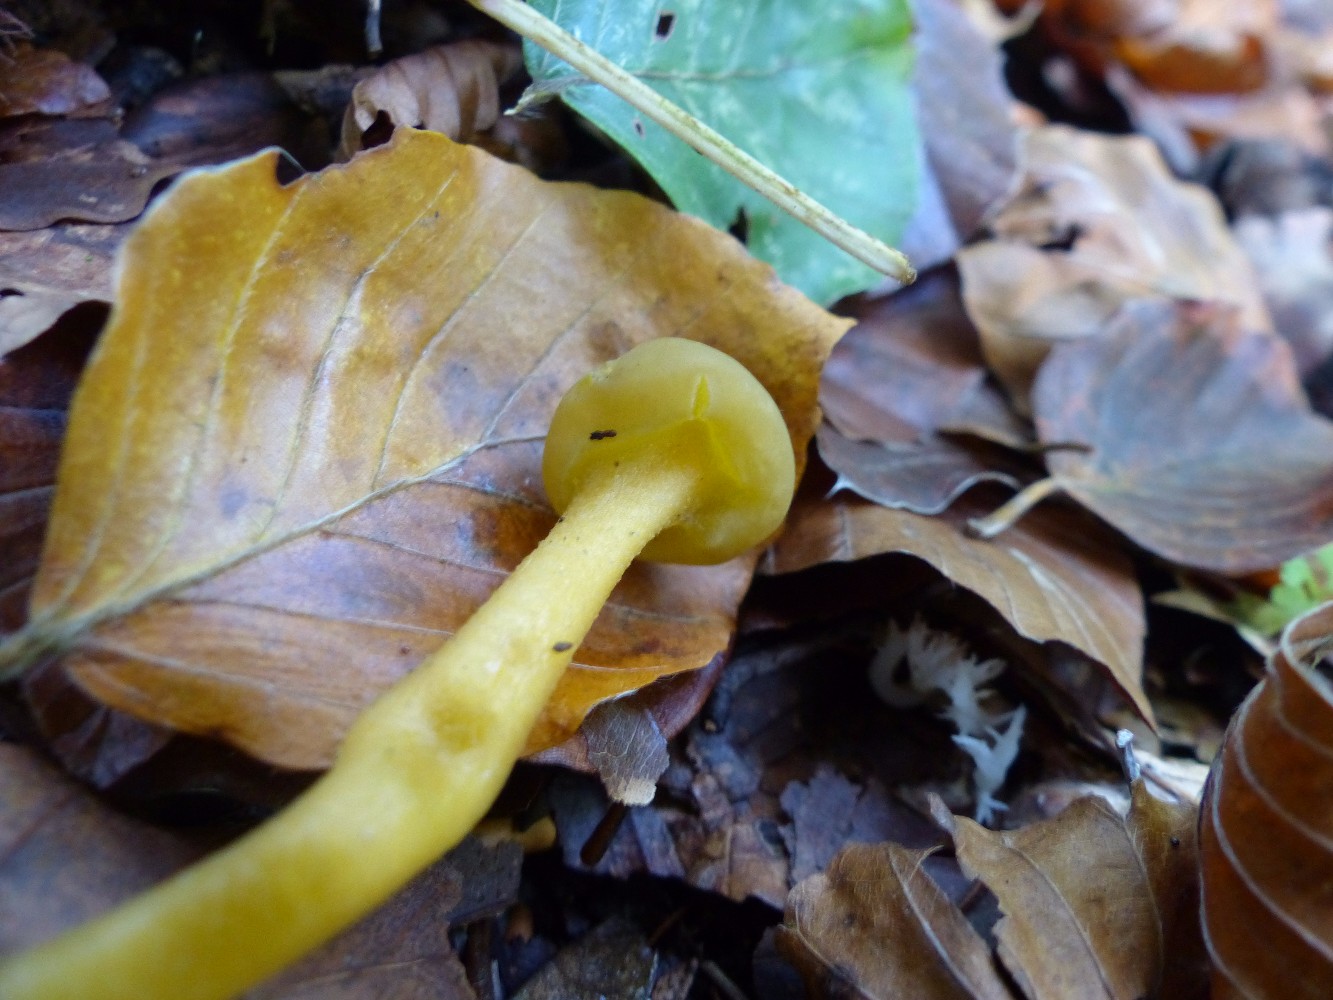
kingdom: Fungi
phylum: Ascomycota
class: Leotiomycetes
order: Leotiales
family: Leotiaceae
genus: Leotia
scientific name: Leotia lubrica
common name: ravsvamp
